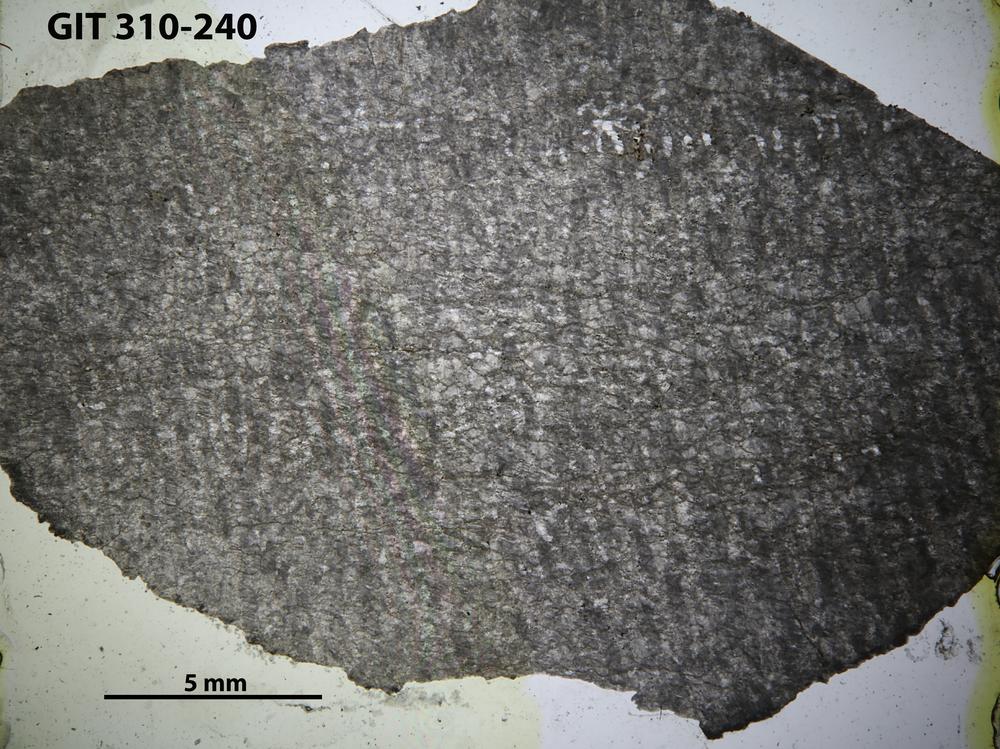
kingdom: Animalia
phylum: Porifera
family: Labechiidae
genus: Labechia
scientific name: Labechia
